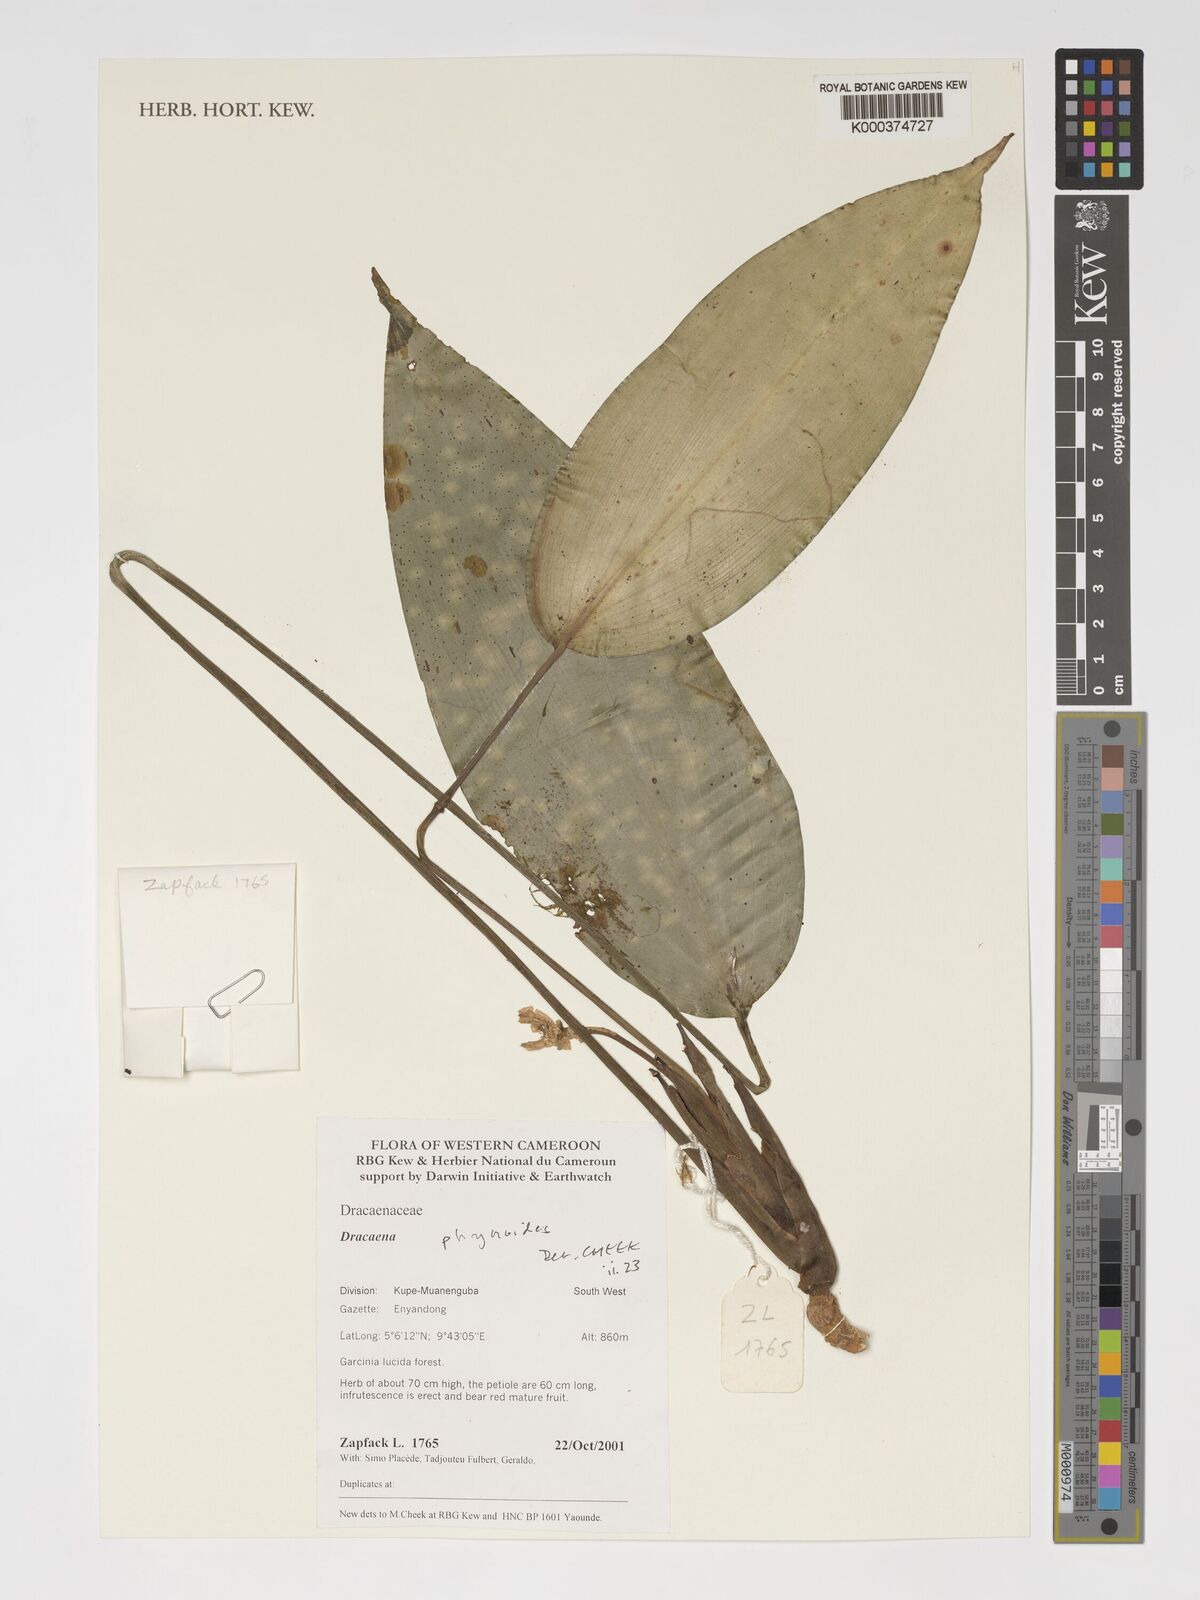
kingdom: Plantae
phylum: Tracheophyta
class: Liliopsida
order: Asparagales
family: Asparagaceae
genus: Dracaena
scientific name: Dracaena phrynioides
